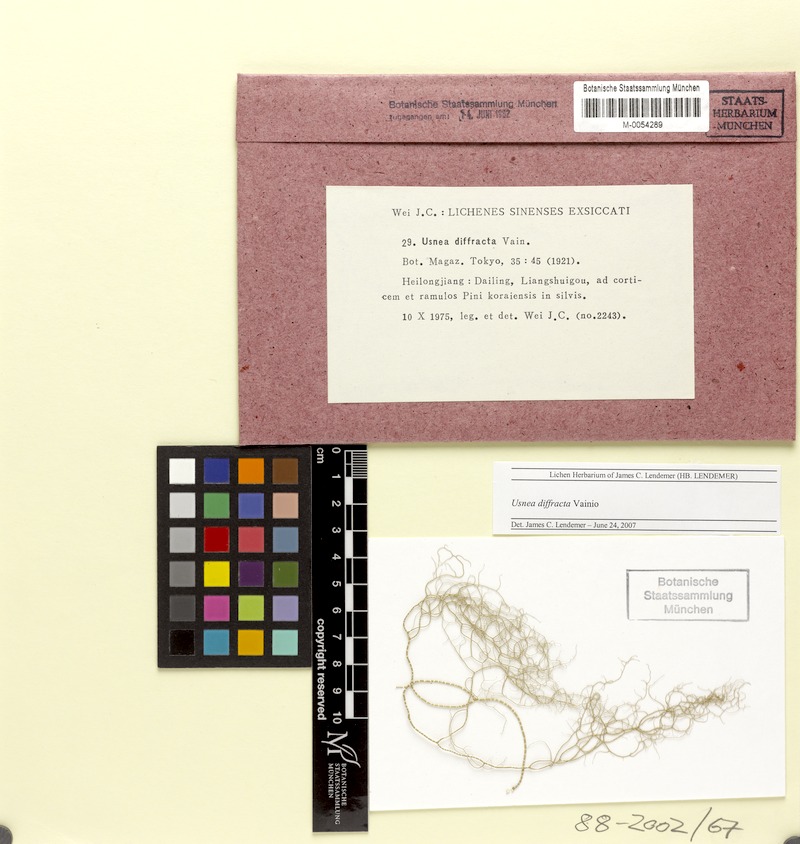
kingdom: Fungi
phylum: Ascomycota
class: Lecanoromycetes
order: Lecanorales
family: Parmeliaceae
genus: Dolichousnea
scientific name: Dolichousnea diffracta
